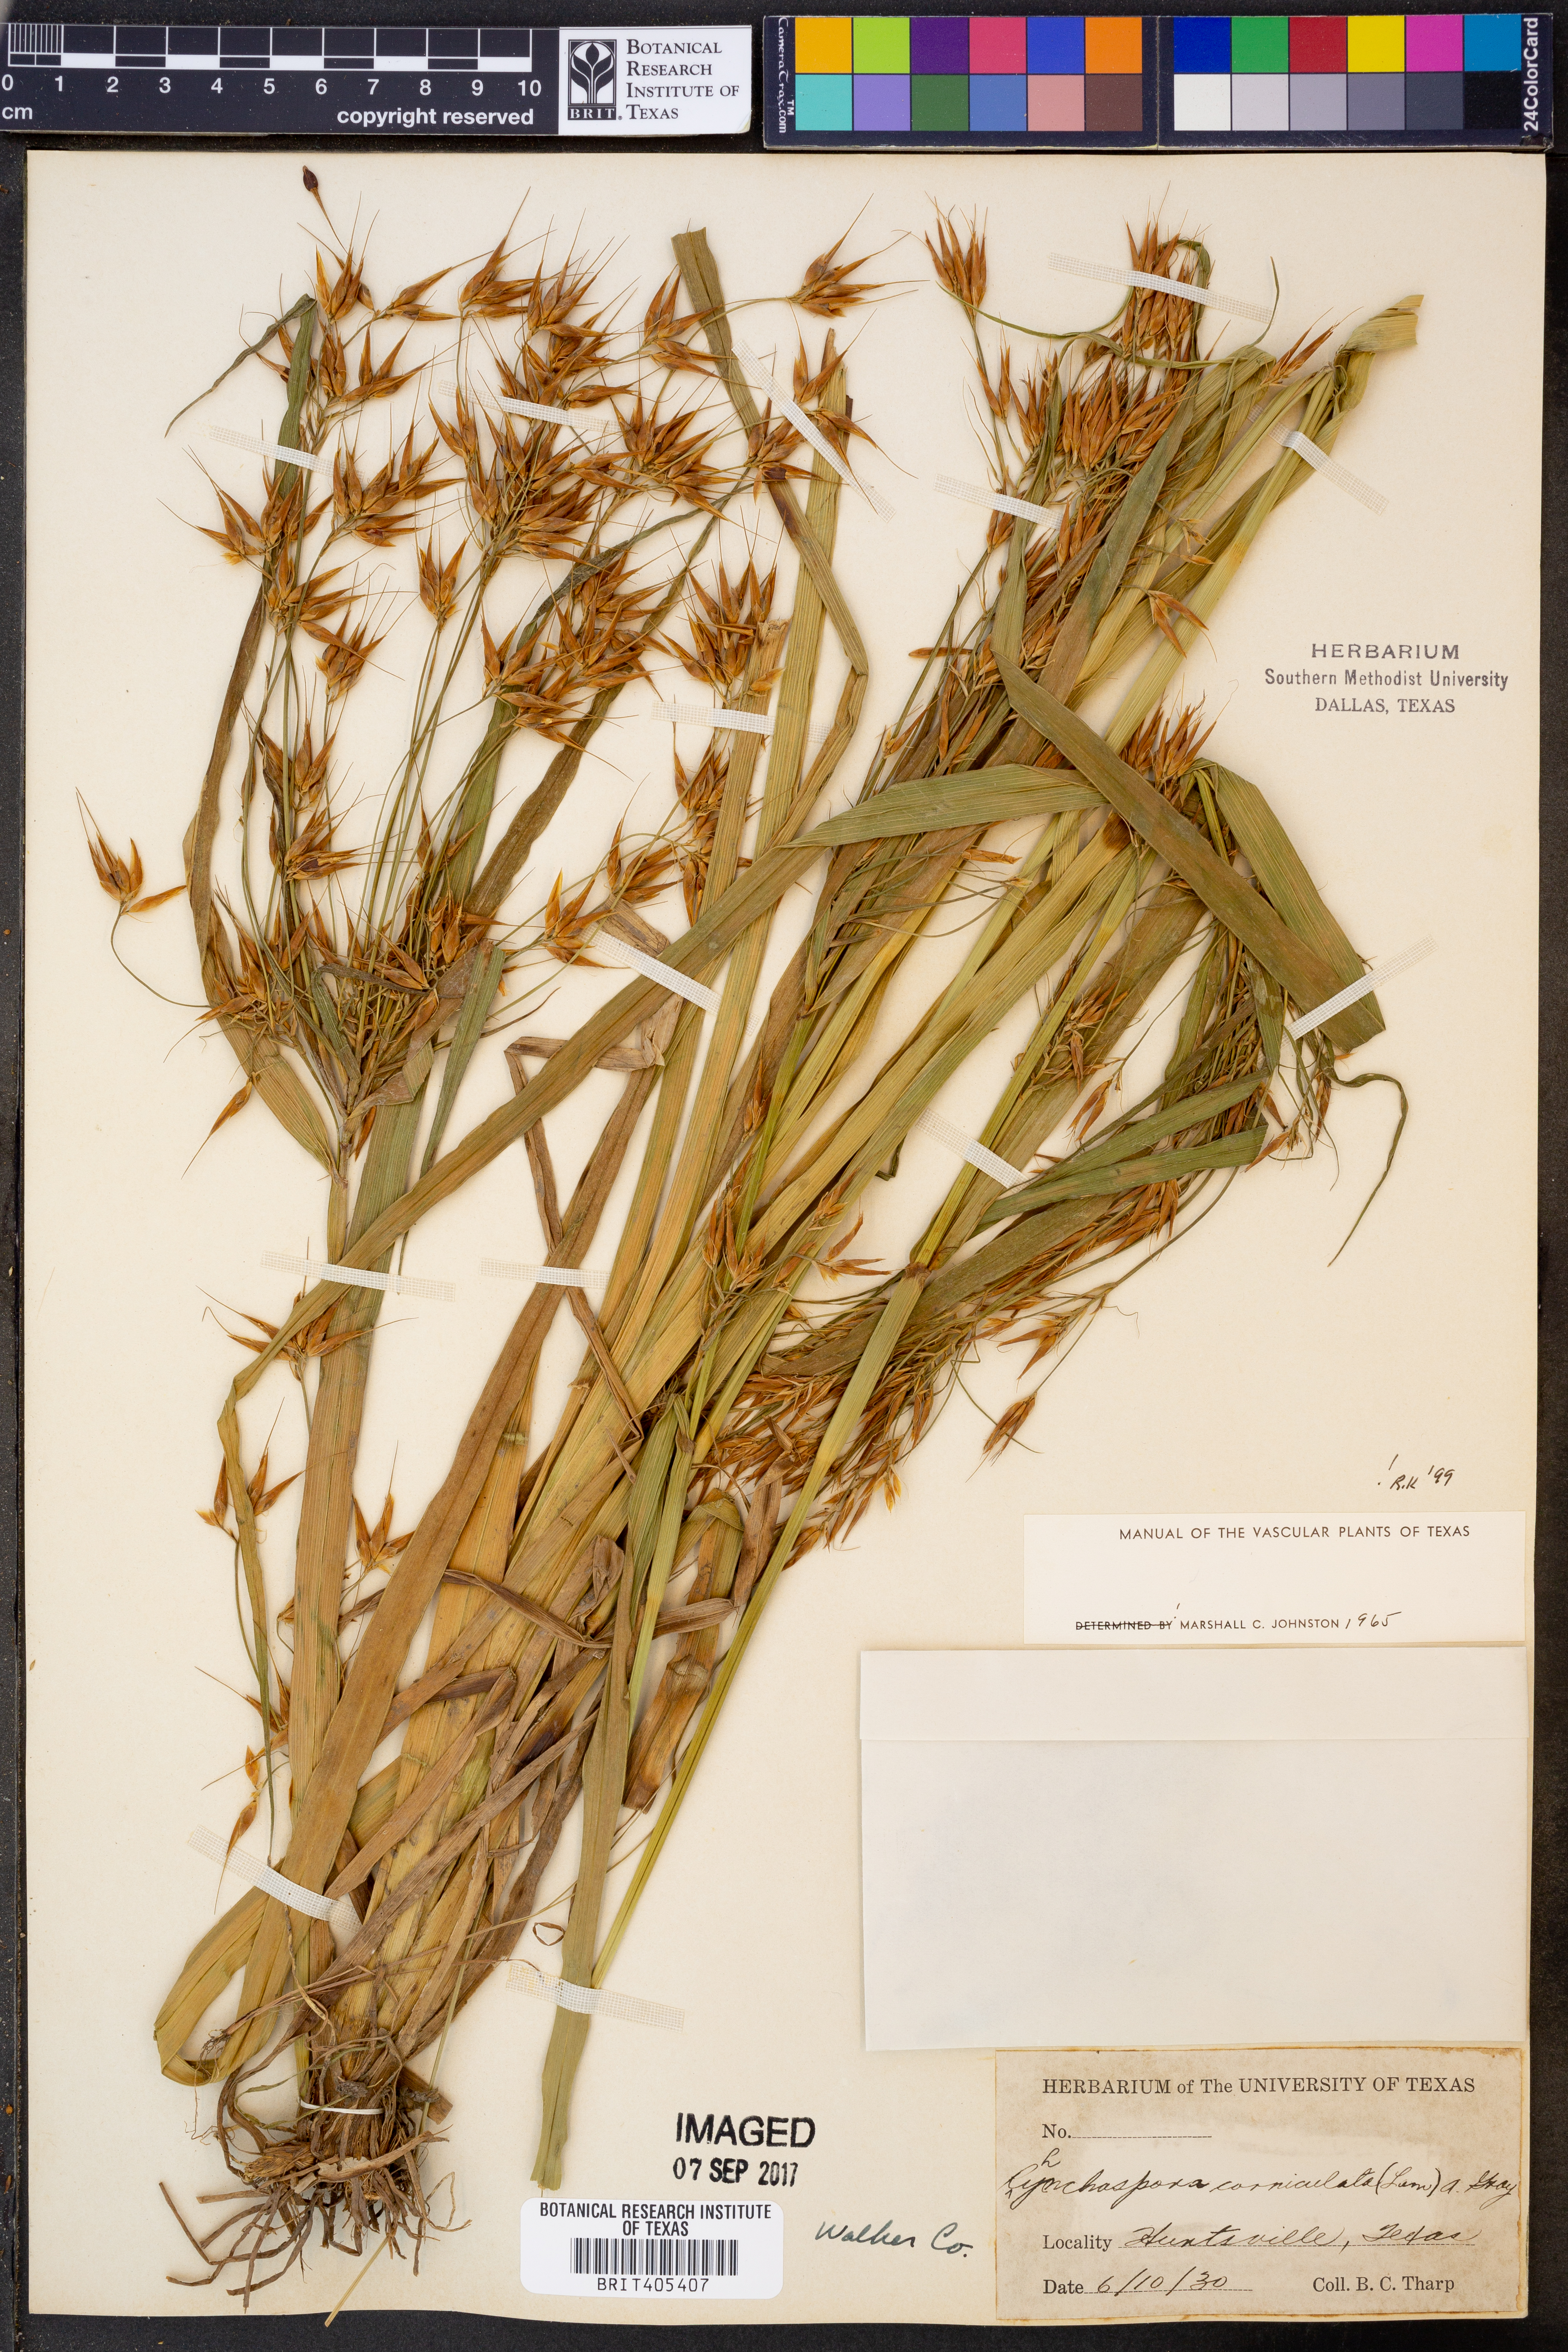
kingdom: Plantae
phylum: Tracheophyta
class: Liliopsida
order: Poales
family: Cyperaceae
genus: Rhynchospora
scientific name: Rhynchospora corniculata
